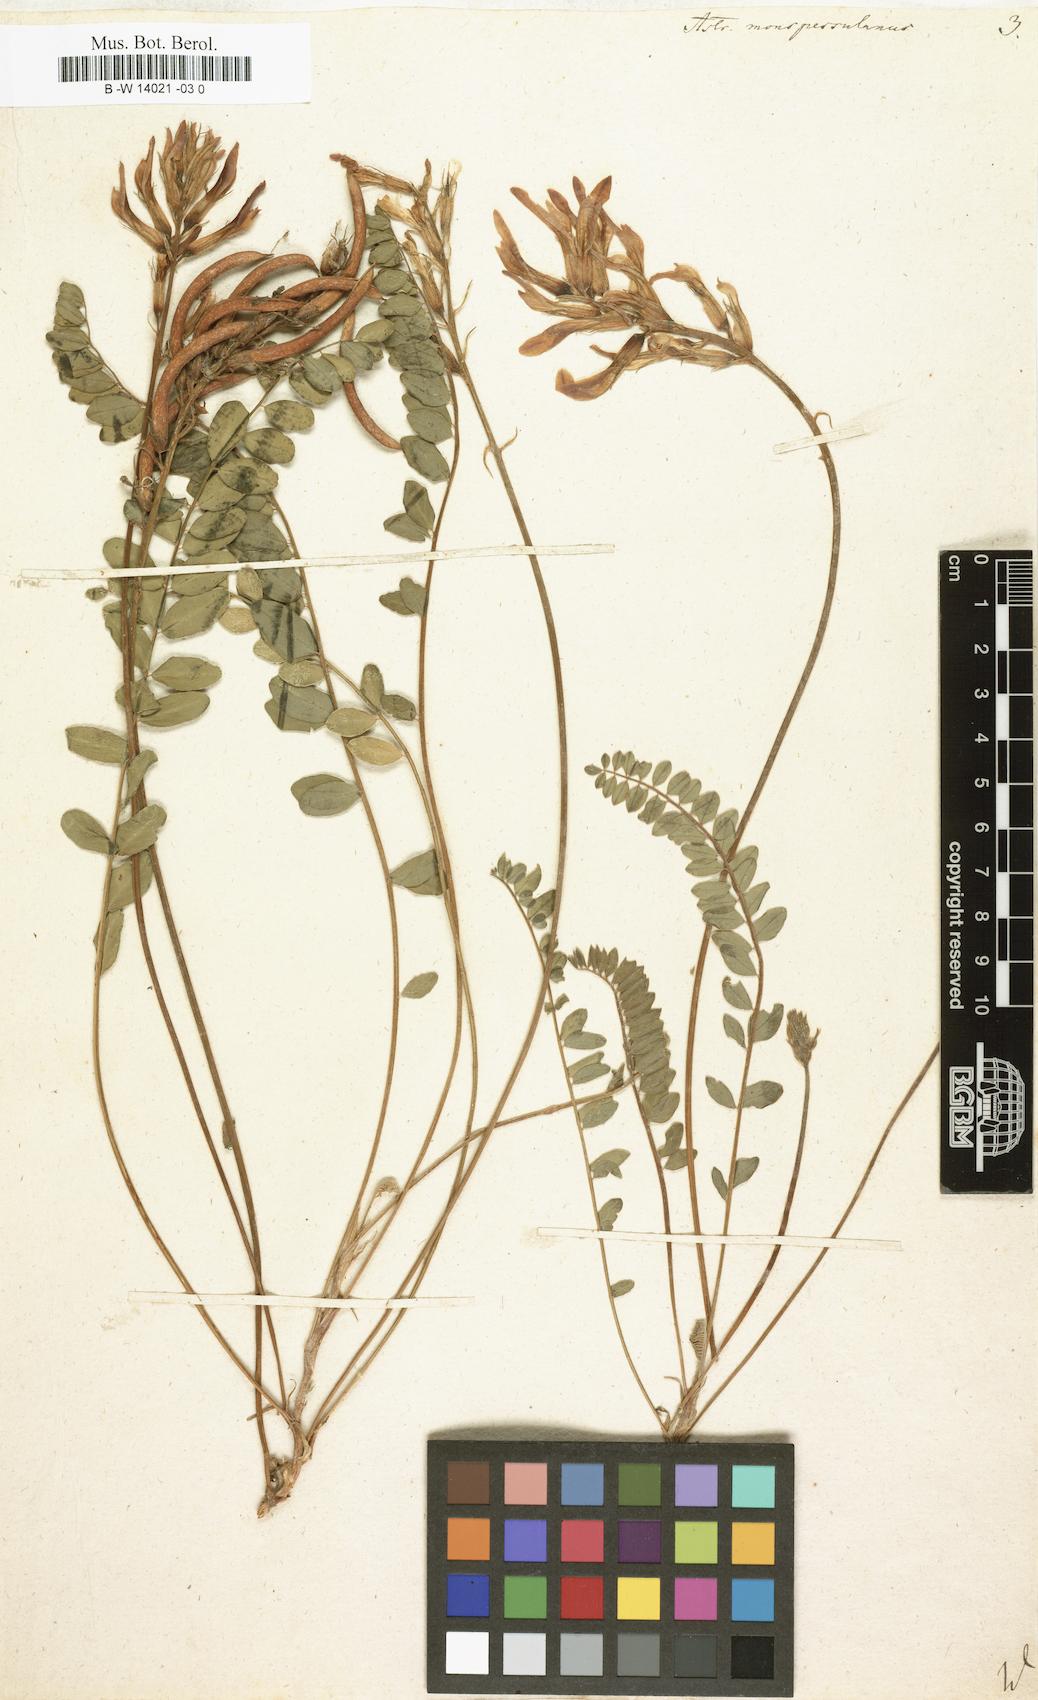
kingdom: Plantae
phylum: Tracheophyta
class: Magnoliopsida
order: Fabales
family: Fabaceae
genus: Astragalus
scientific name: Astragalus monspessulanus
